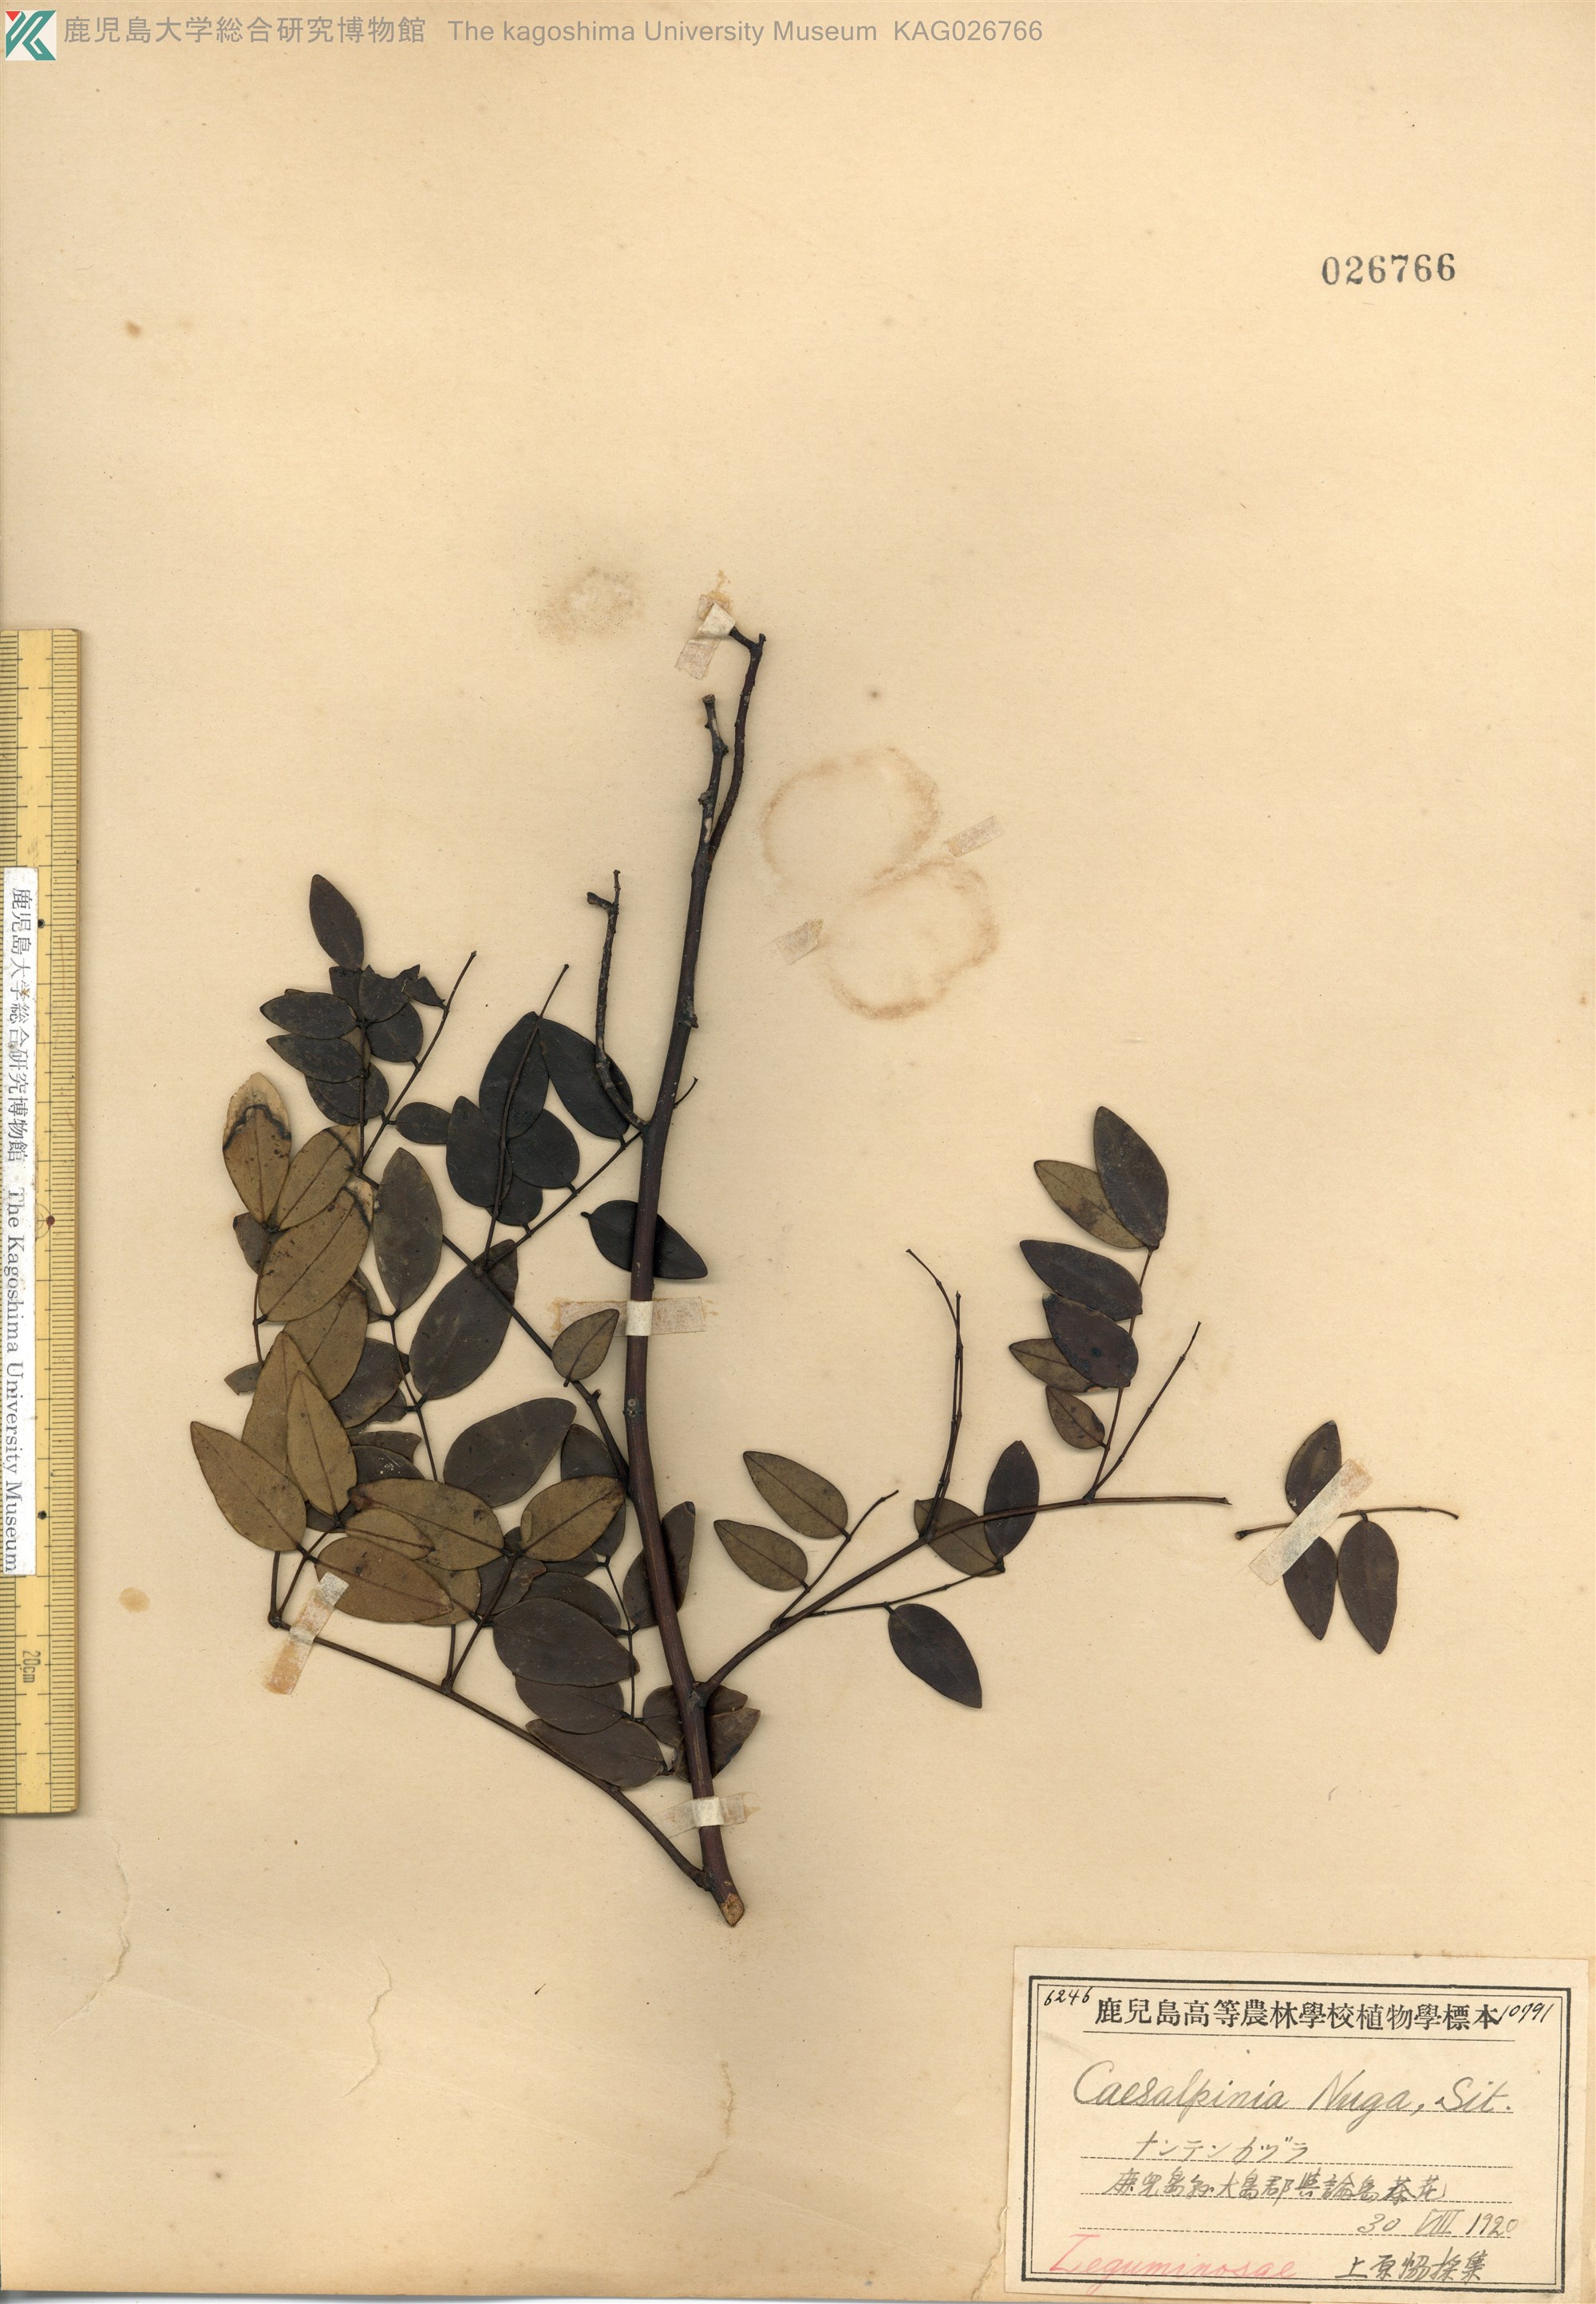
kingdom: Plantae
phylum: Tracheophyta
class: Magnoliopsida
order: Fabales
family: Fabaceae
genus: Caesalpinia
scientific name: Caesalpinia Ticanto crista
